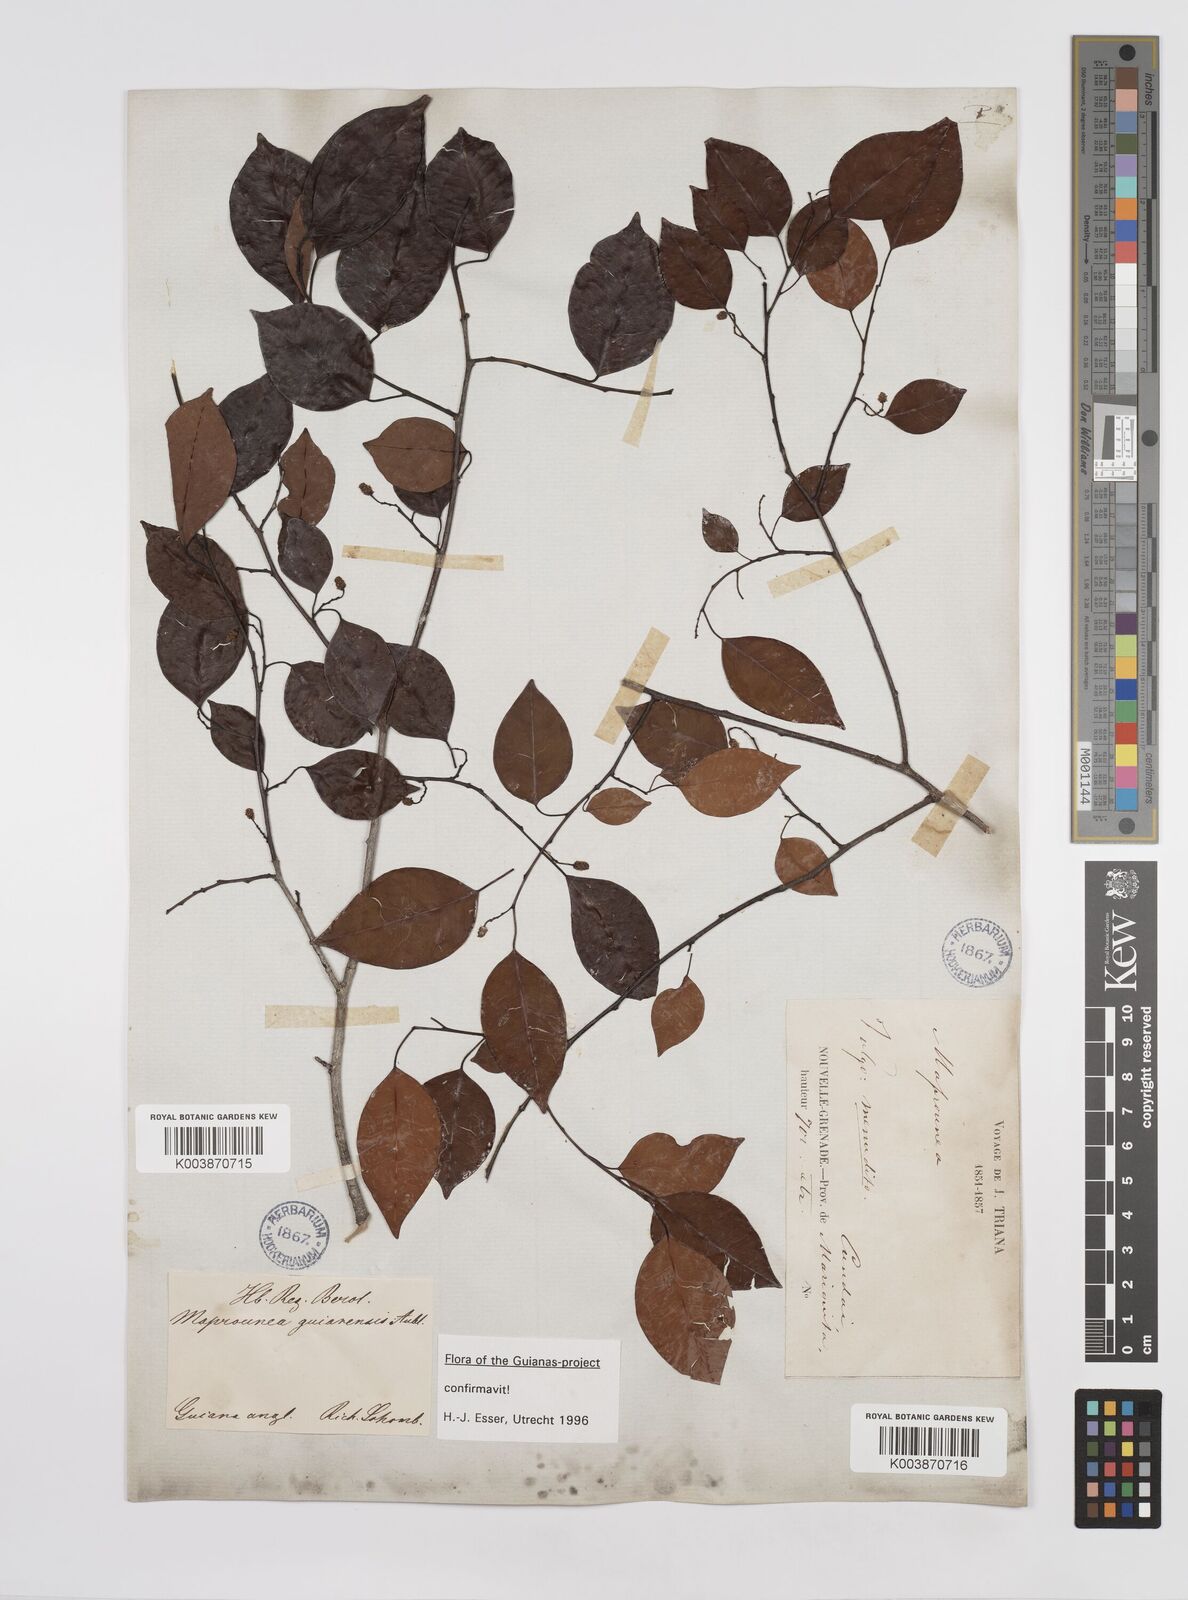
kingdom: Plantae
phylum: Tracheophyta
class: Magnoliopsida
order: Malpighiales
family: Euphorbiaceae
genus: Maprounea
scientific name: Maprounea guianensis
